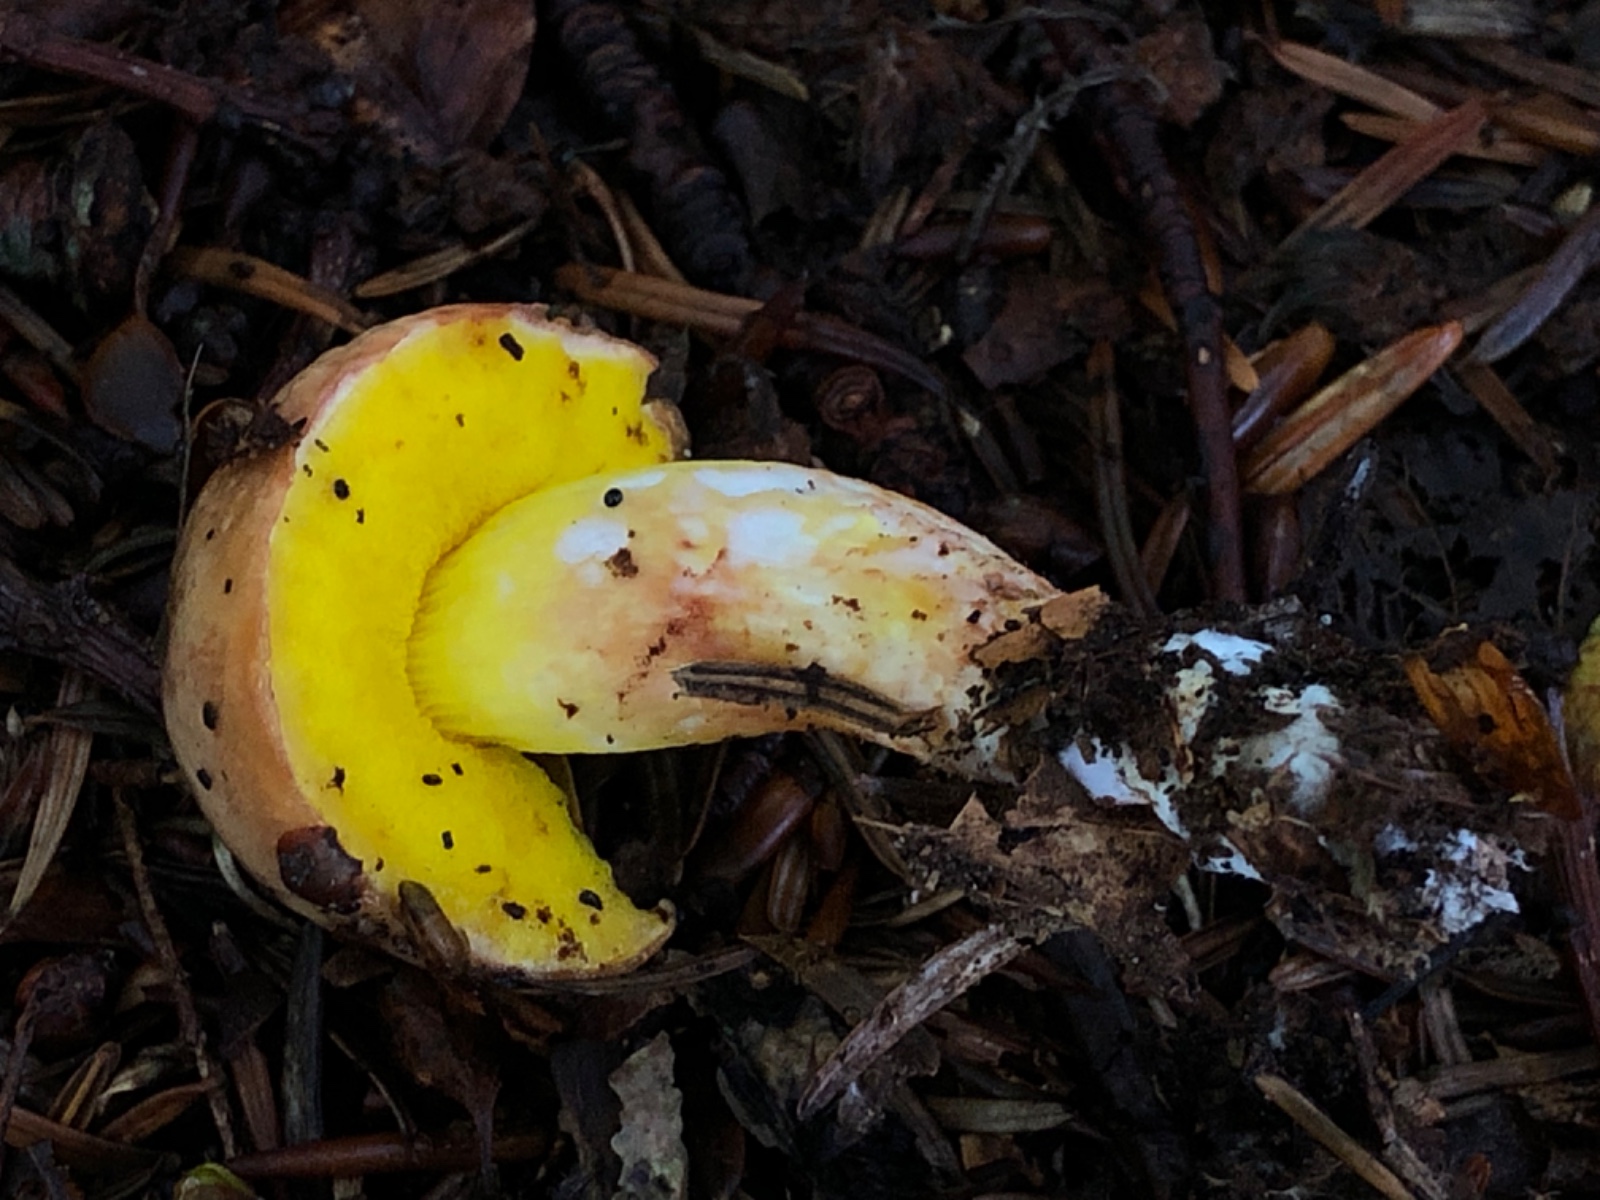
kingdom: Fungi
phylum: Basidiomycota
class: Agaricomycetes
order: Boletales
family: Boletaceae
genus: Aureoboletus
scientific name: Aureoboletus gentilis
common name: guldrørhat
